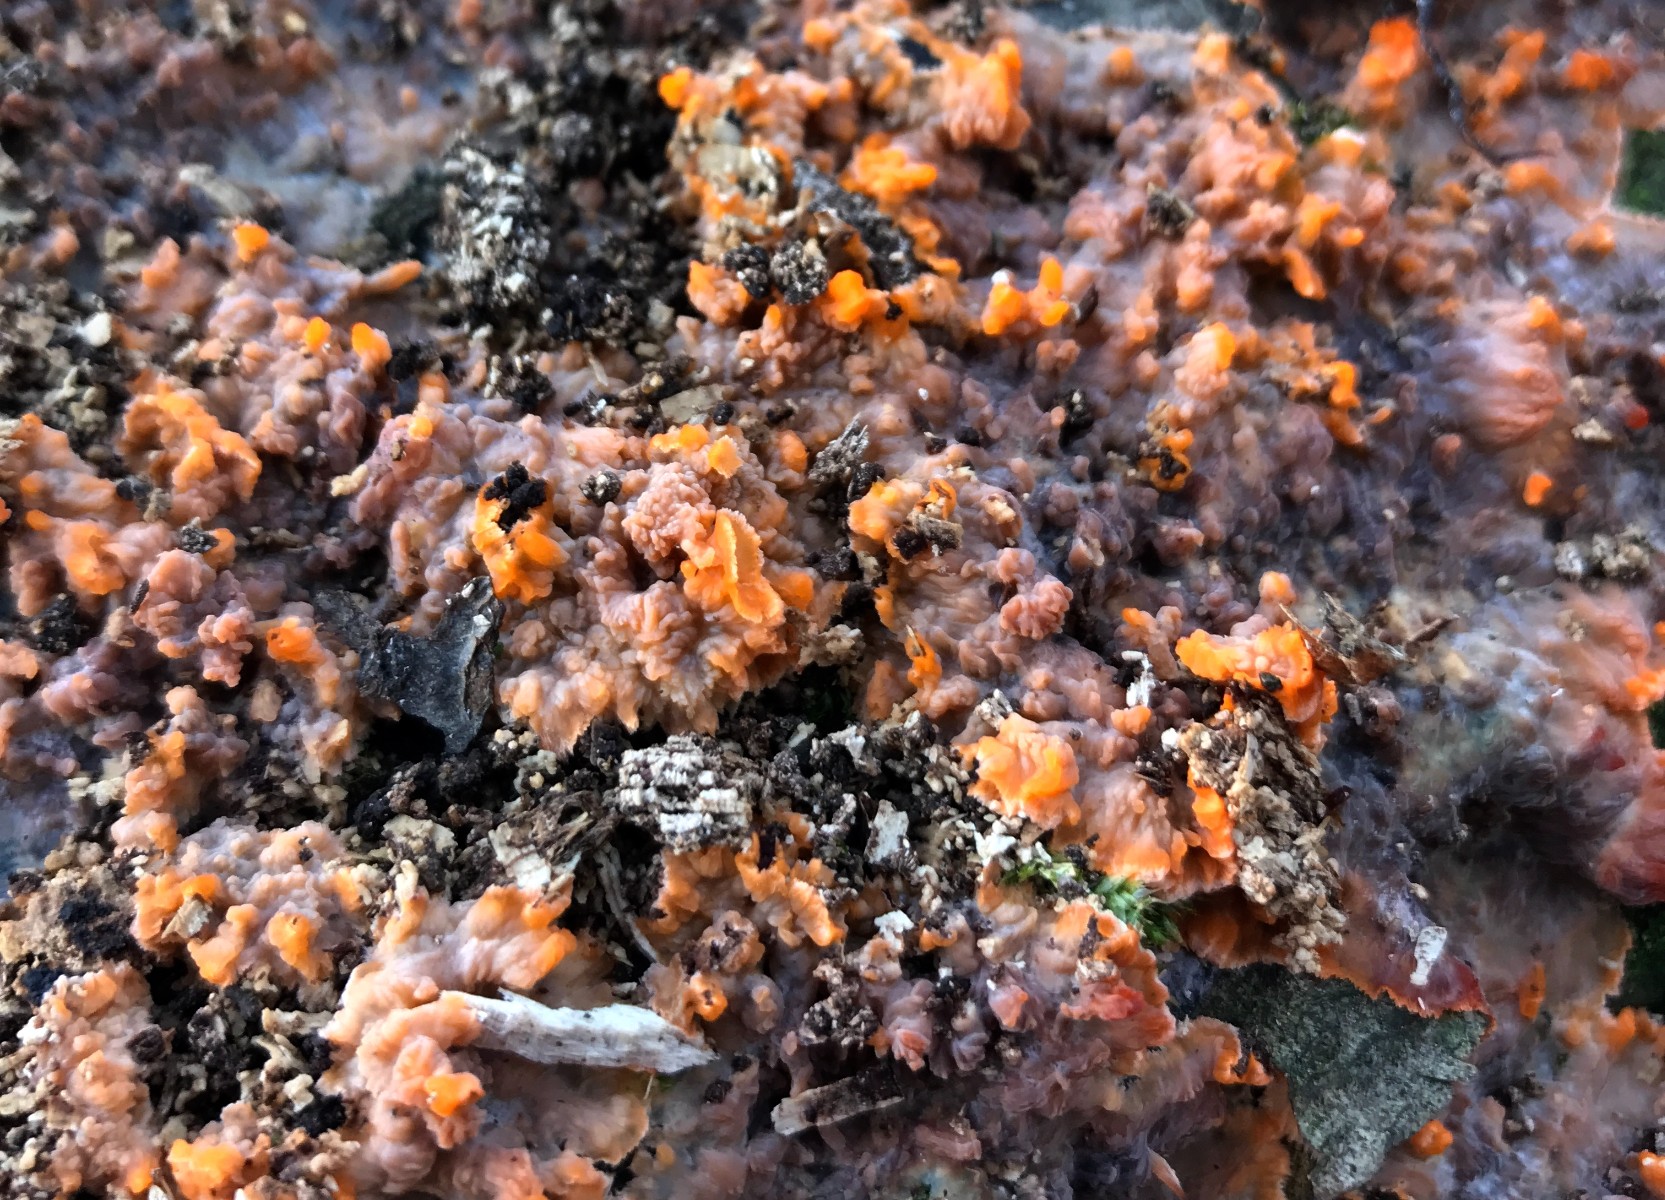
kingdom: Fungi
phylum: Basidiomycota
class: Agaricomycetes
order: Polyporales
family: Meruliaceae
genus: Phlebia
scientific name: Phlebia radiata
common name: stråle-åresvamp
